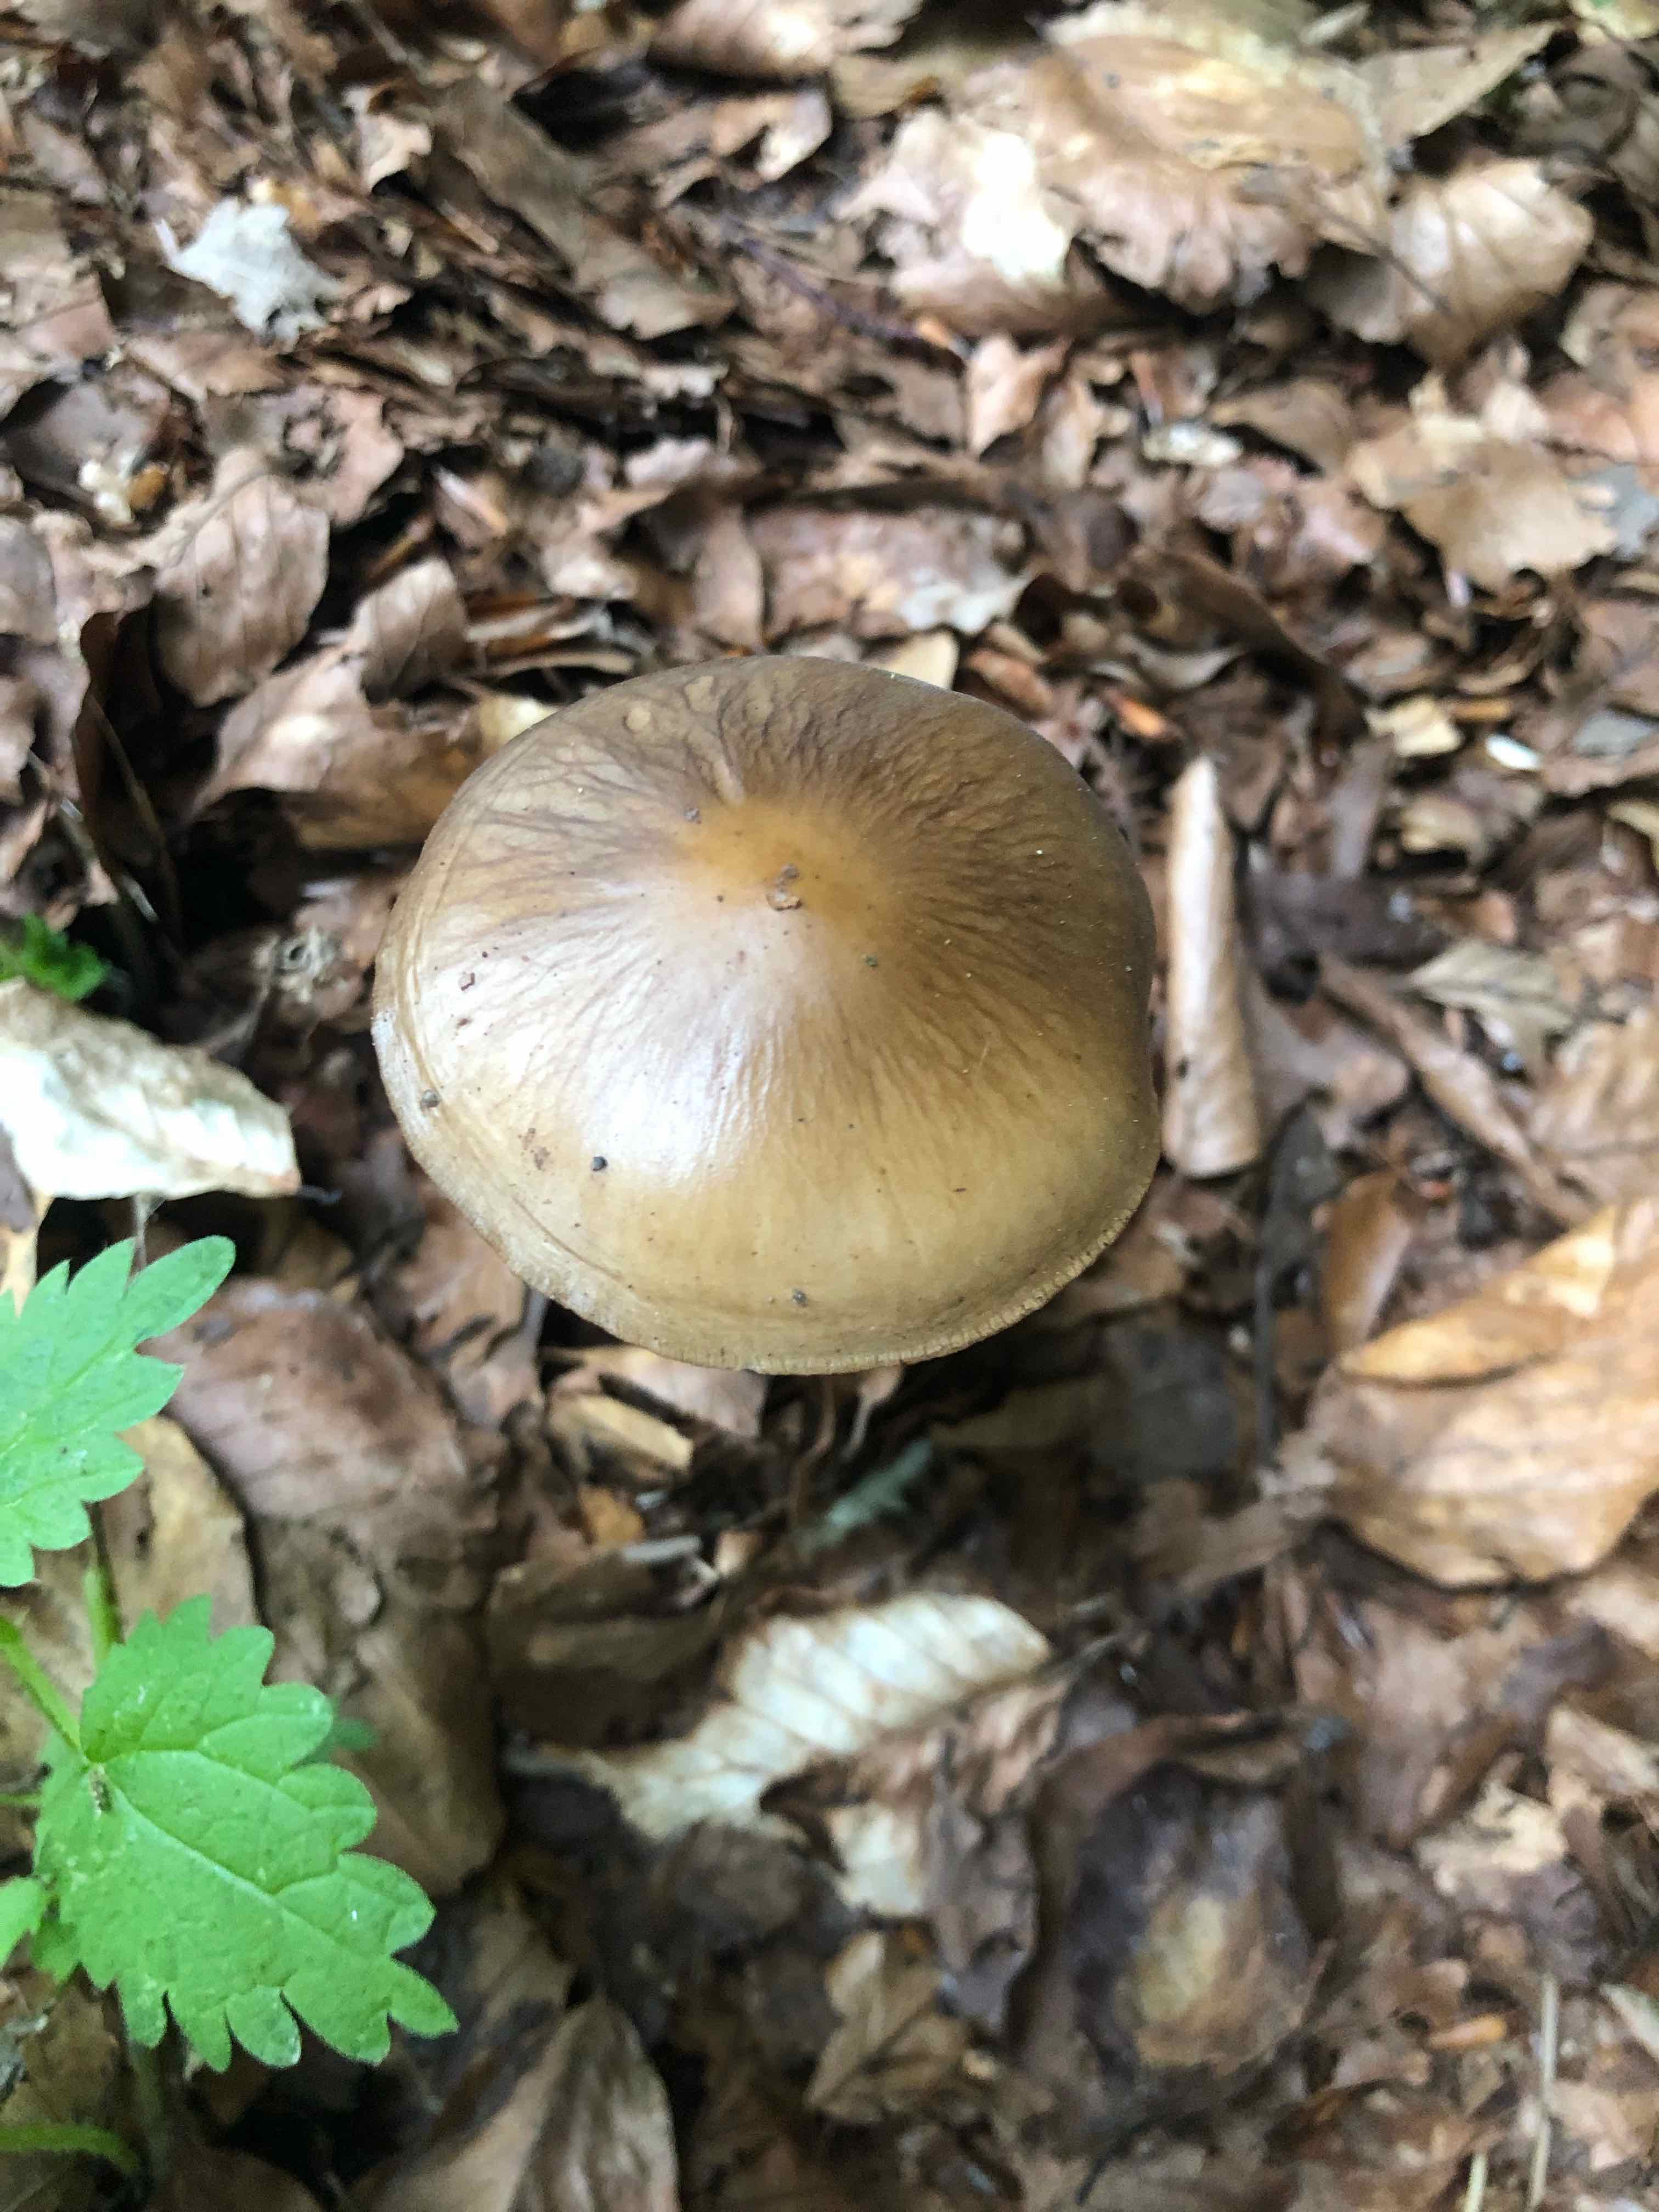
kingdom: Fungi
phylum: Basidiomycota
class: Agaricomycetes
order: Agaricales
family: Physalacriaceae
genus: Hymenopellis
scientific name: Hymenopellis radicata
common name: almindelig pælerodshat
